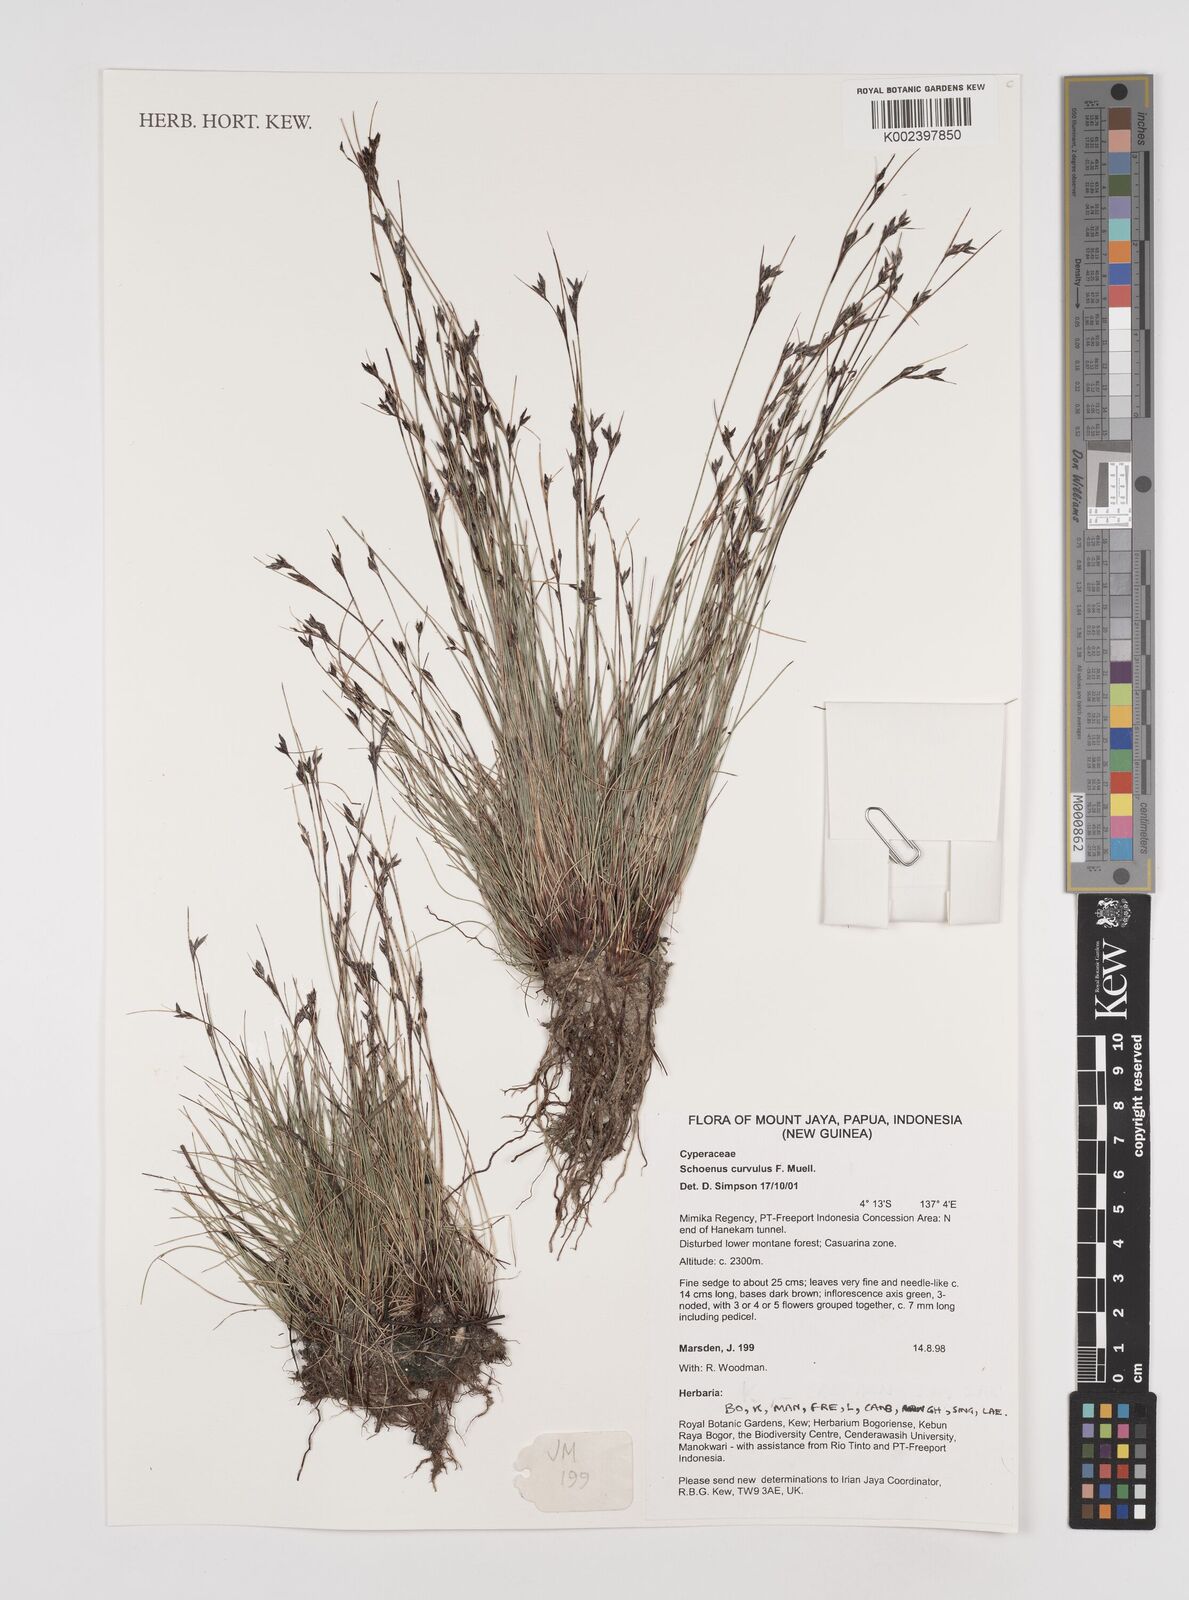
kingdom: Plantae
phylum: Tracheophyta
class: Liliopsida
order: Poales
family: Cyperaceae
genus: Schoenus
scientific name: Schoenus curvulus
